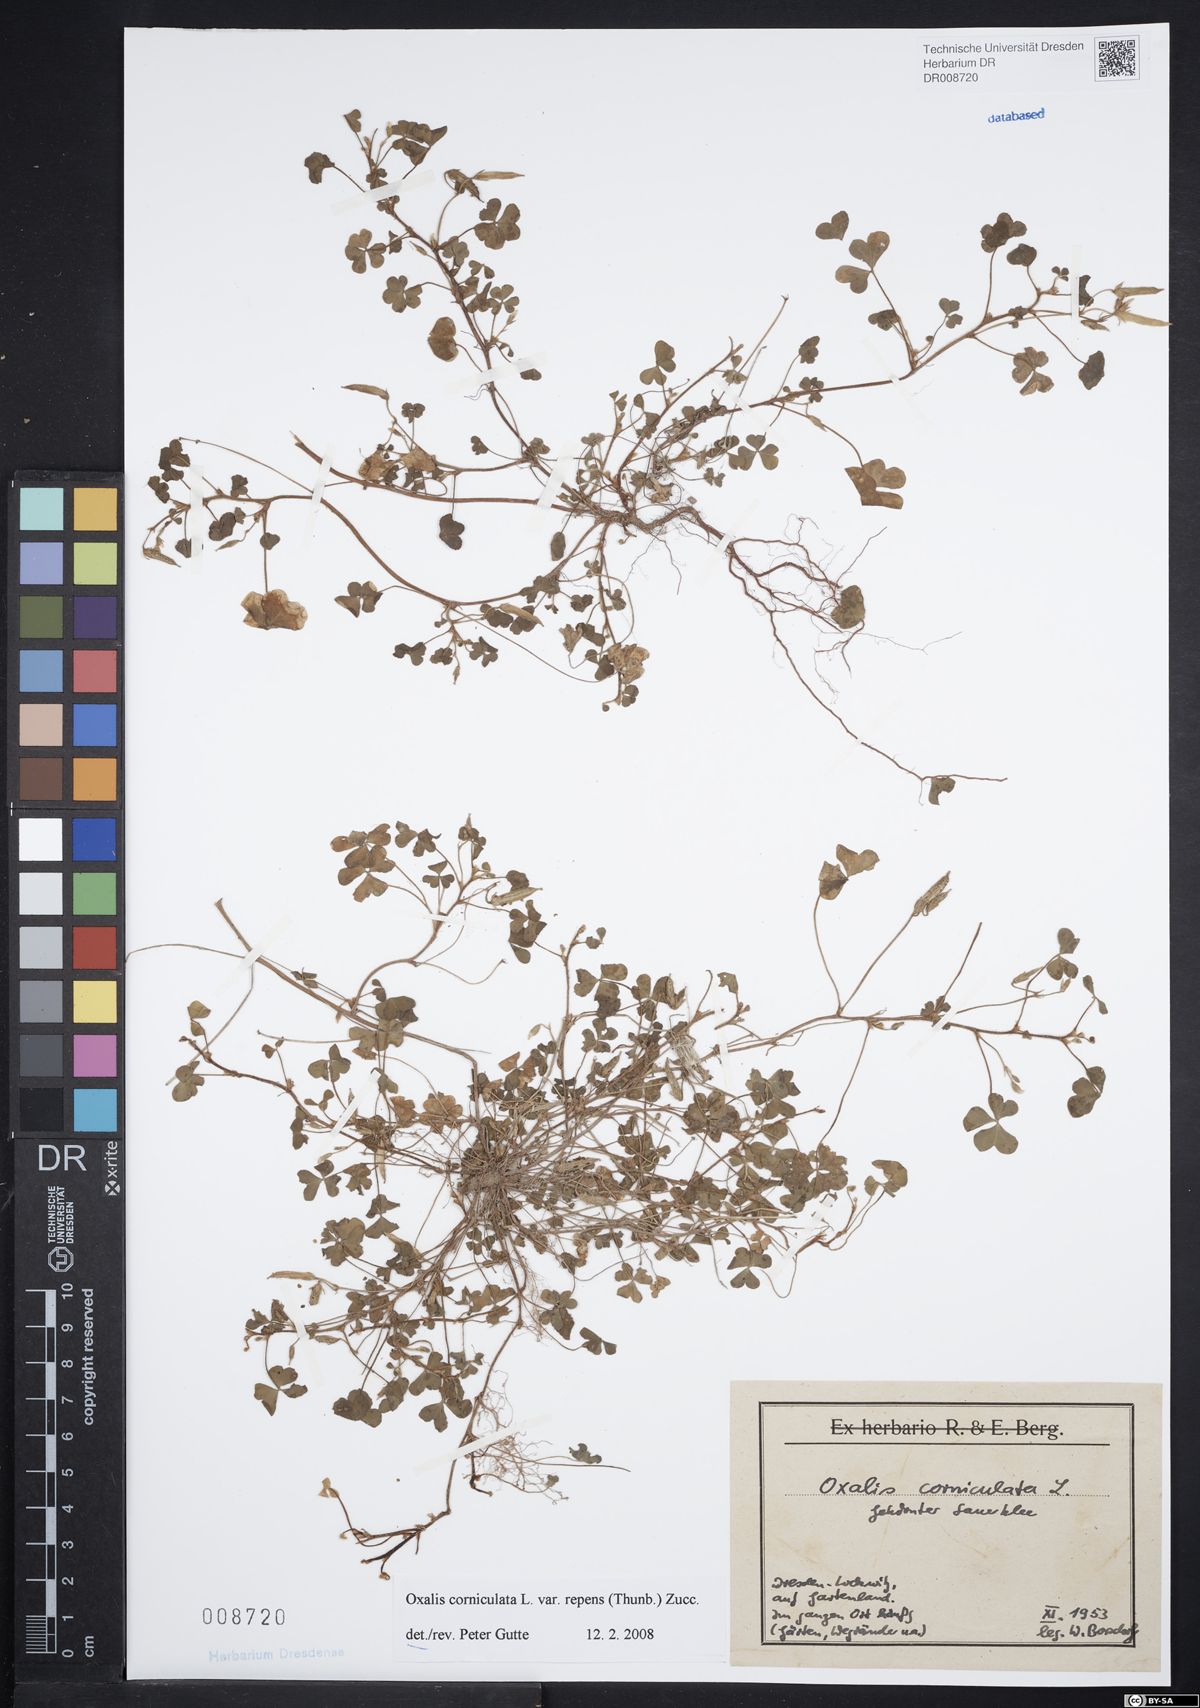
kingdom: Plantae
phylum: Tracheophyta
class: Magnoliopsida
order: Oxalidales
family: Oxalidaceae
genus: Oxalis
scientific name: Oxalis corniculata
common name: Procumbent yellow-sorrel
